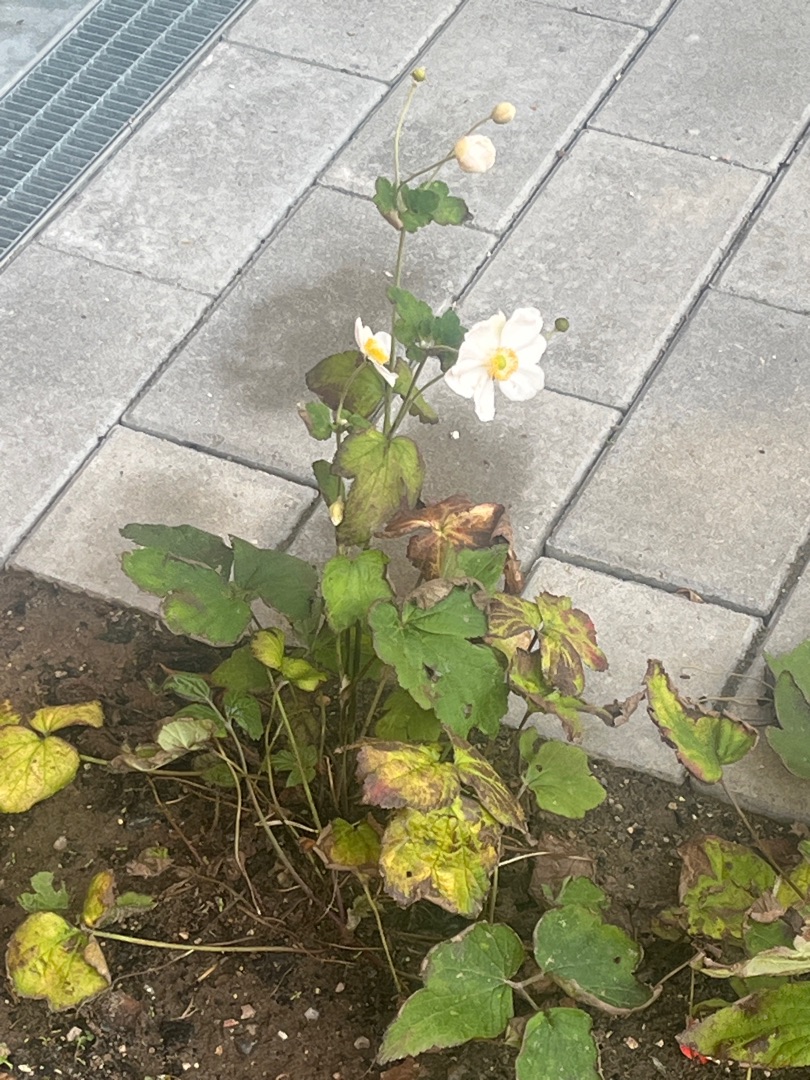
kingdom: Plantae
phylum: Tracheophyta
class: Magnoliopsida
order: Ranunculales
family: Ranunculaceae
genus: Eriocapitella
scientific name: Eriocapitella hupehensis
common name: Høst-anemone
